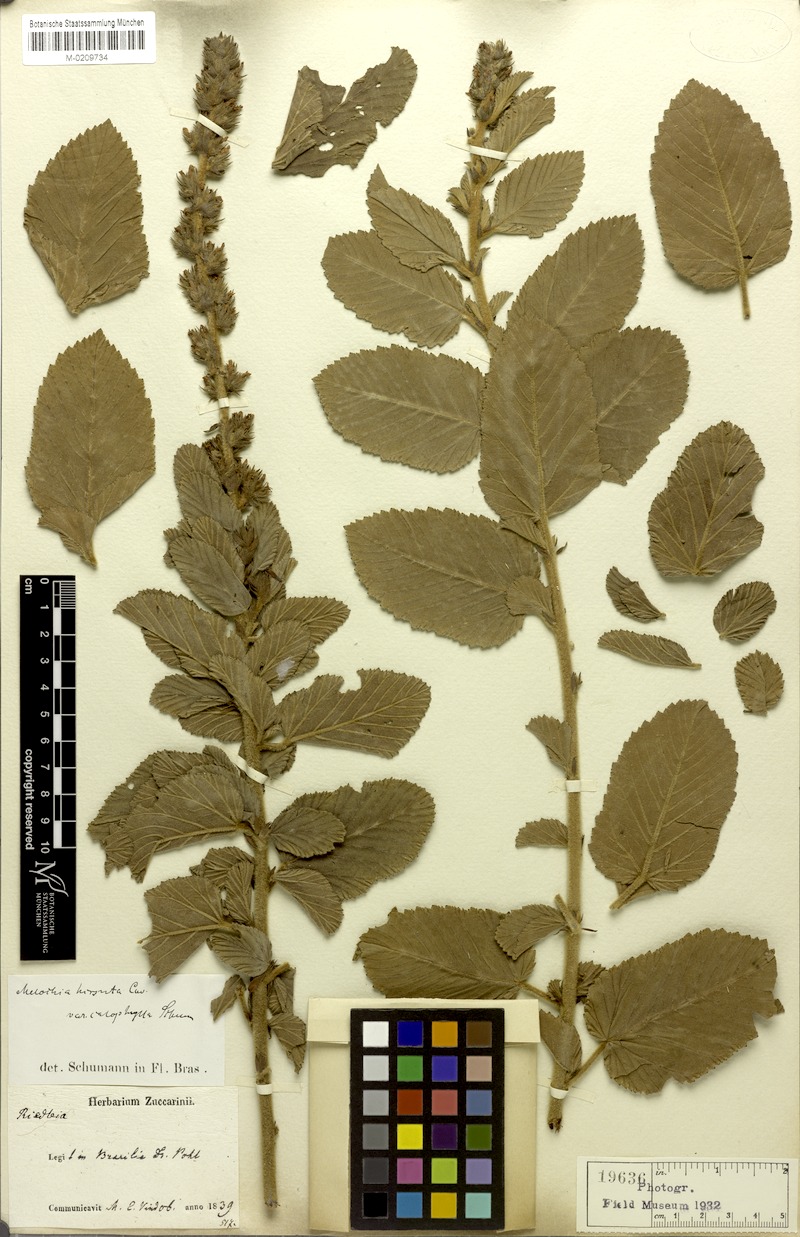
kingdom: Plantae
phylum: Tracheophyta
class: Magnoliopsida
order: Malvales
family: Malvaceae
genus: Melochia
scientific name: Melochia spicata
